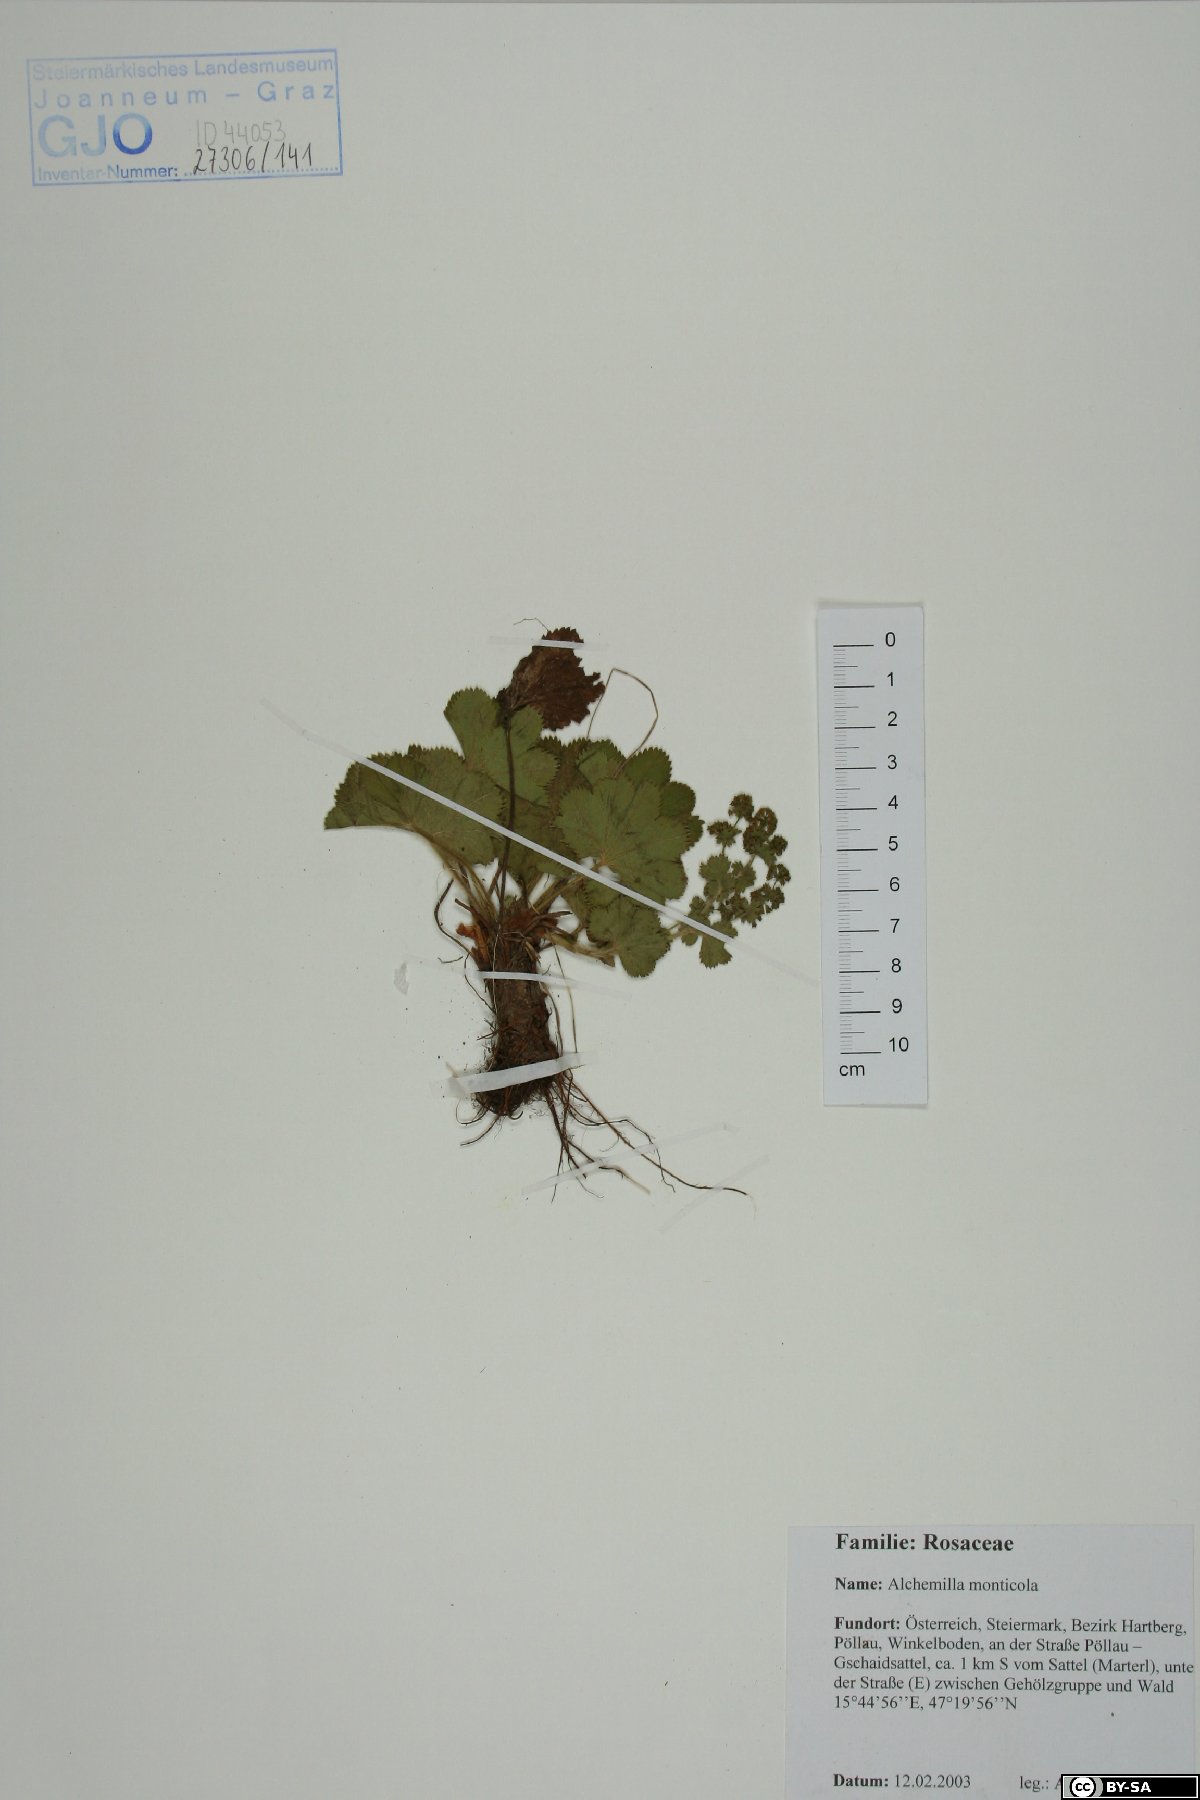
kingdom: Plantae
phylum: Tracheophyta
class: Magnoliopsida
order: Rosales
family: Rosaceae
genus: Alchemilla
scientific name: Alchemilla monticola
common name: Hairy lady's mantle
